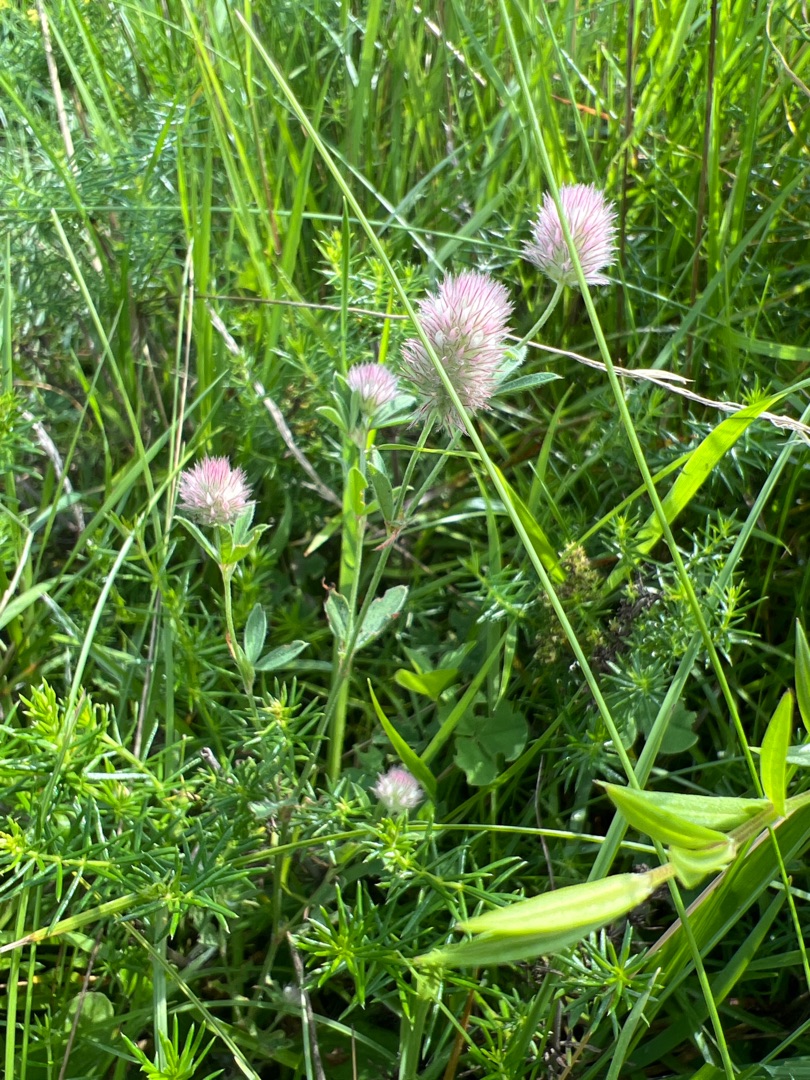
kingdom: Plantae
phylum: Tracheophyta
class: Magnoliopsida
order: Fabales
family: Fabaceae
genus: Trifolium
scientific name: Trifolium arvense
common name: Hare-kløver
